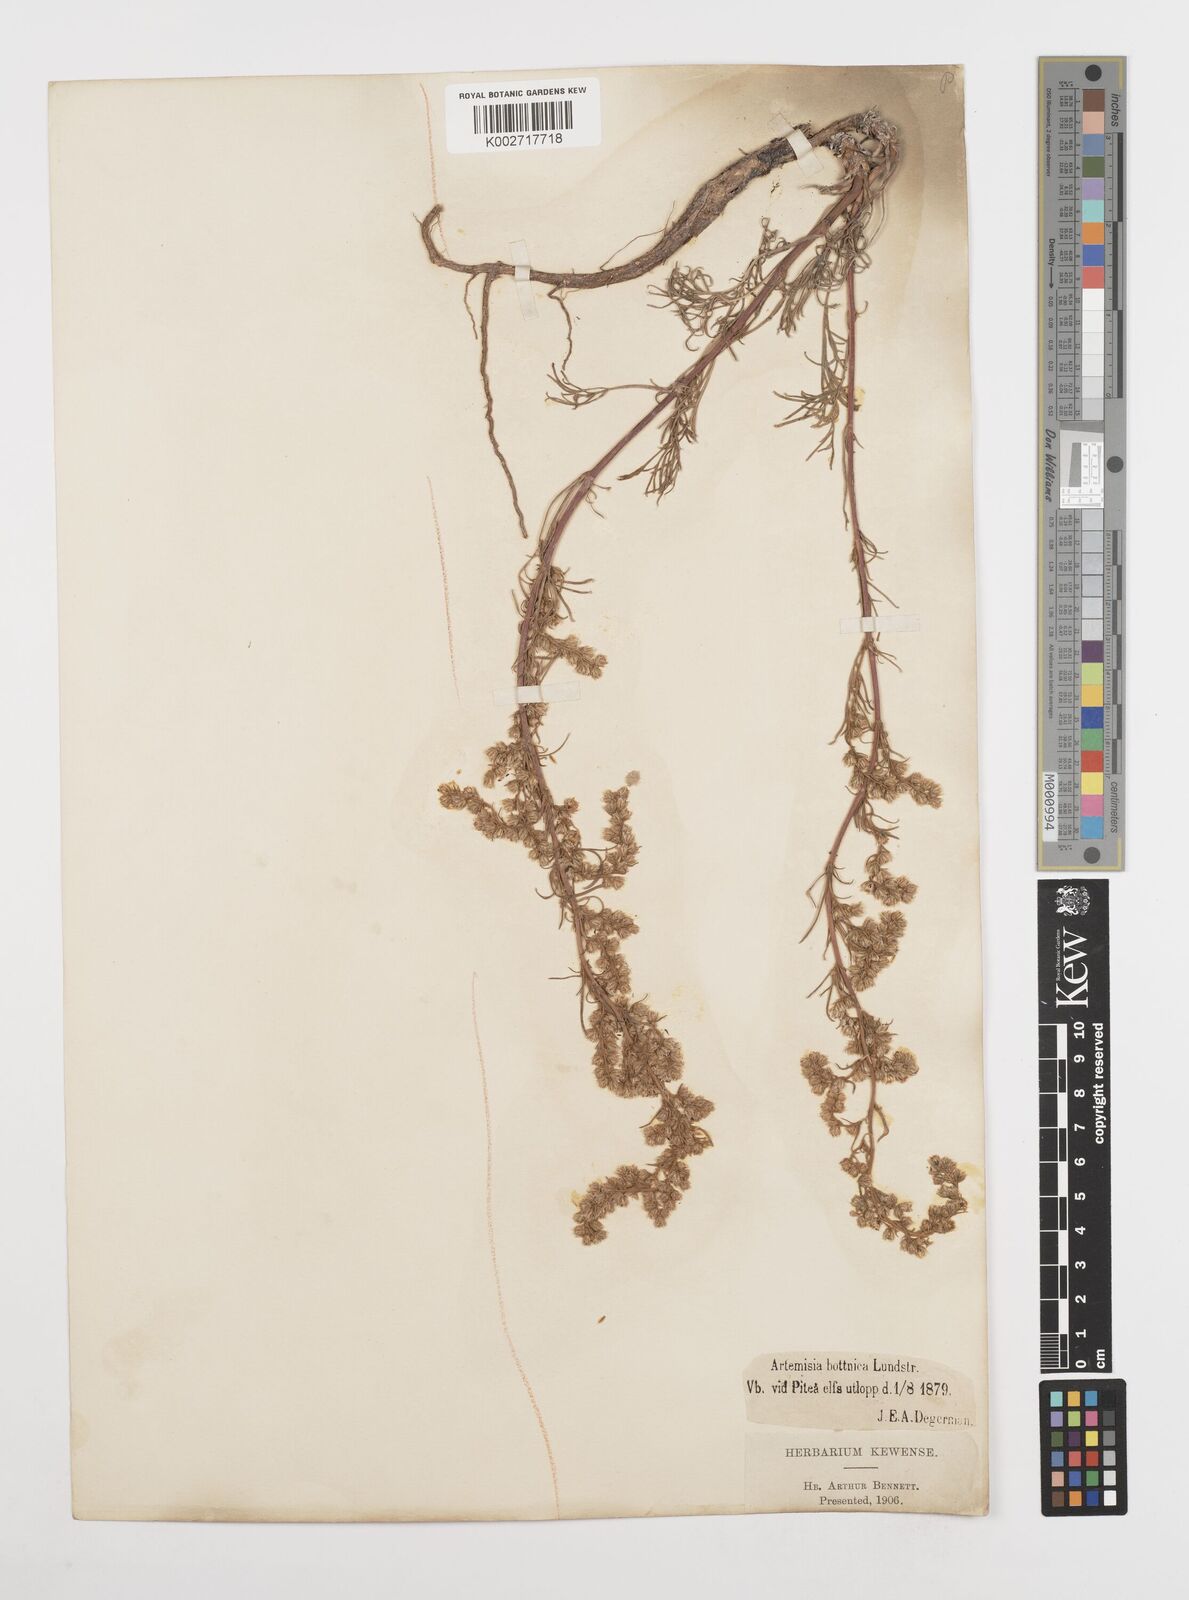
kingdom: Plantae
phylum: Tracheophyta
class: Magnoliopsida
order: Asterales
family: Asteraceae
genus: Artemisia
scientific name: Artemisia campestris
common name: Field wormwood
